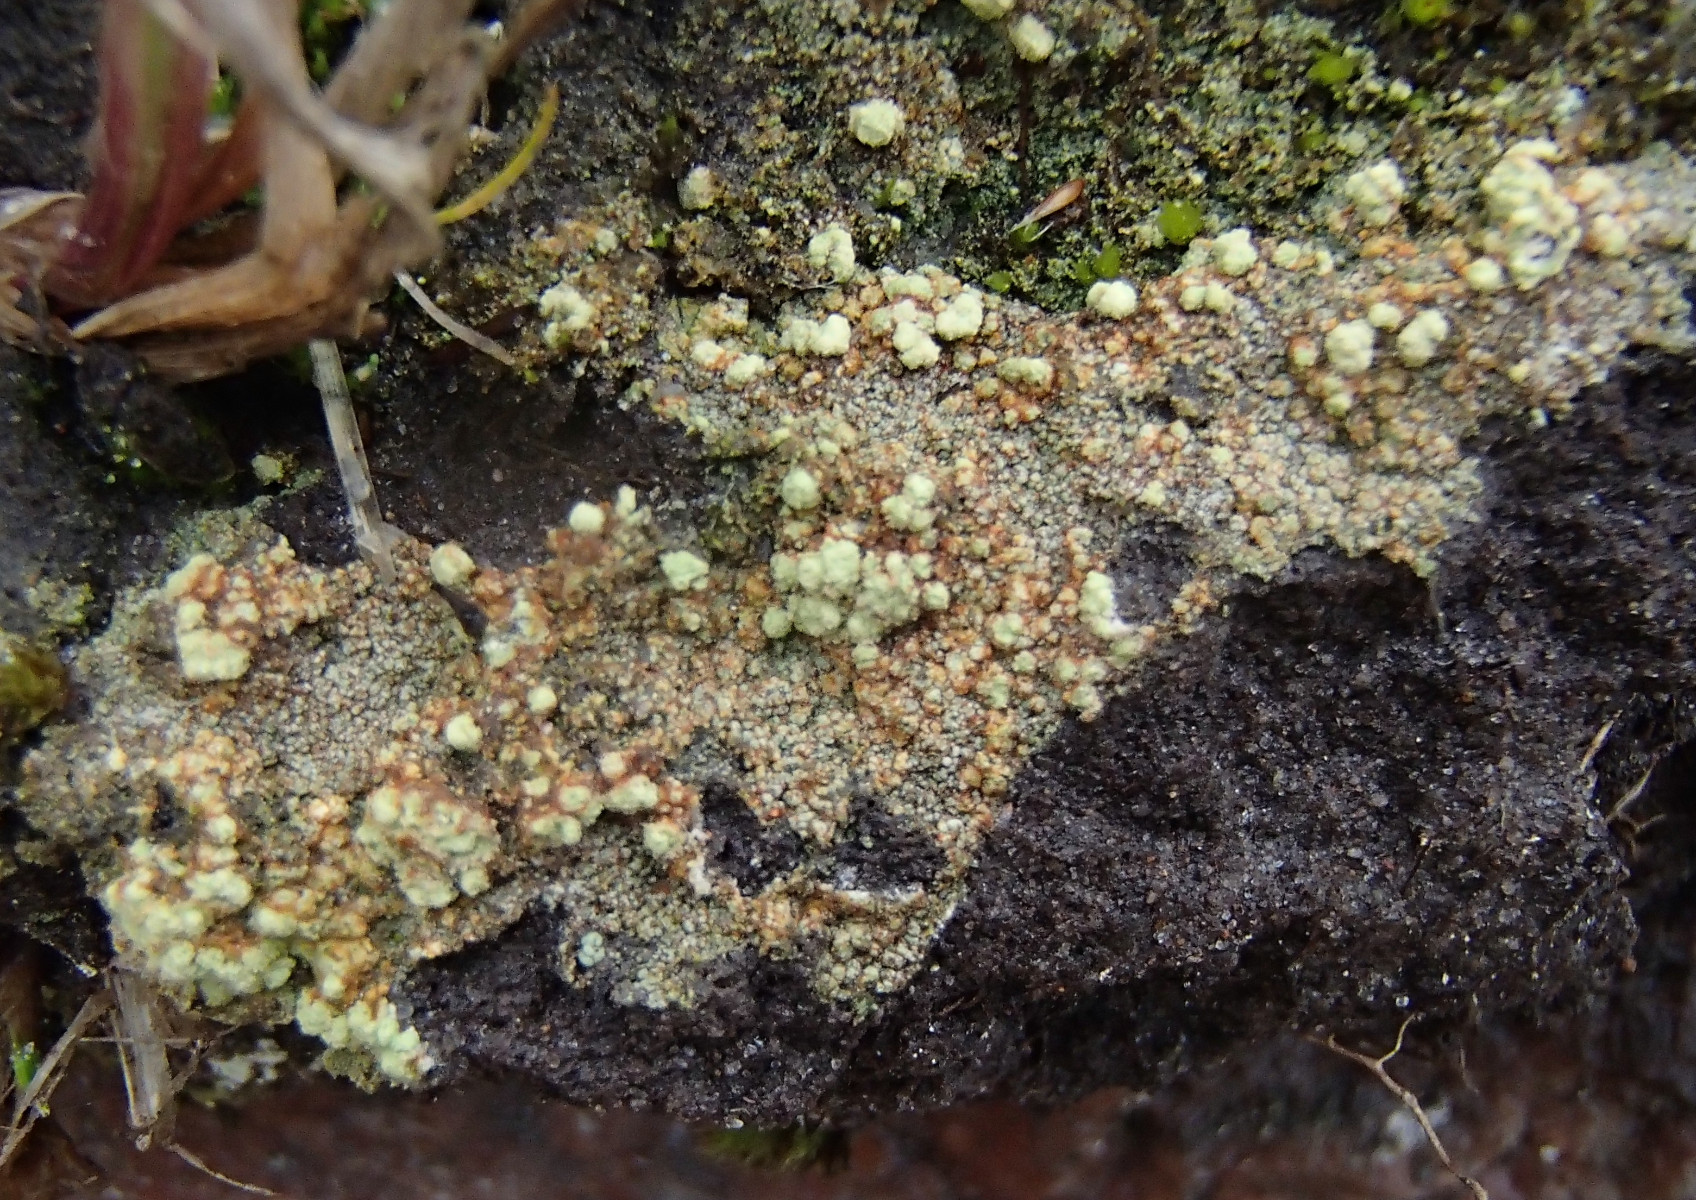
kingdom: Fungi
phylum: Ascomycota
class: Lecanoromycetes
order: Baeomycetales
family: Trapeliaceae
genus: Trapeliopsis
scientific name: Trapeliopsis pseudogranulosa
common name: gulbroget skivelav
